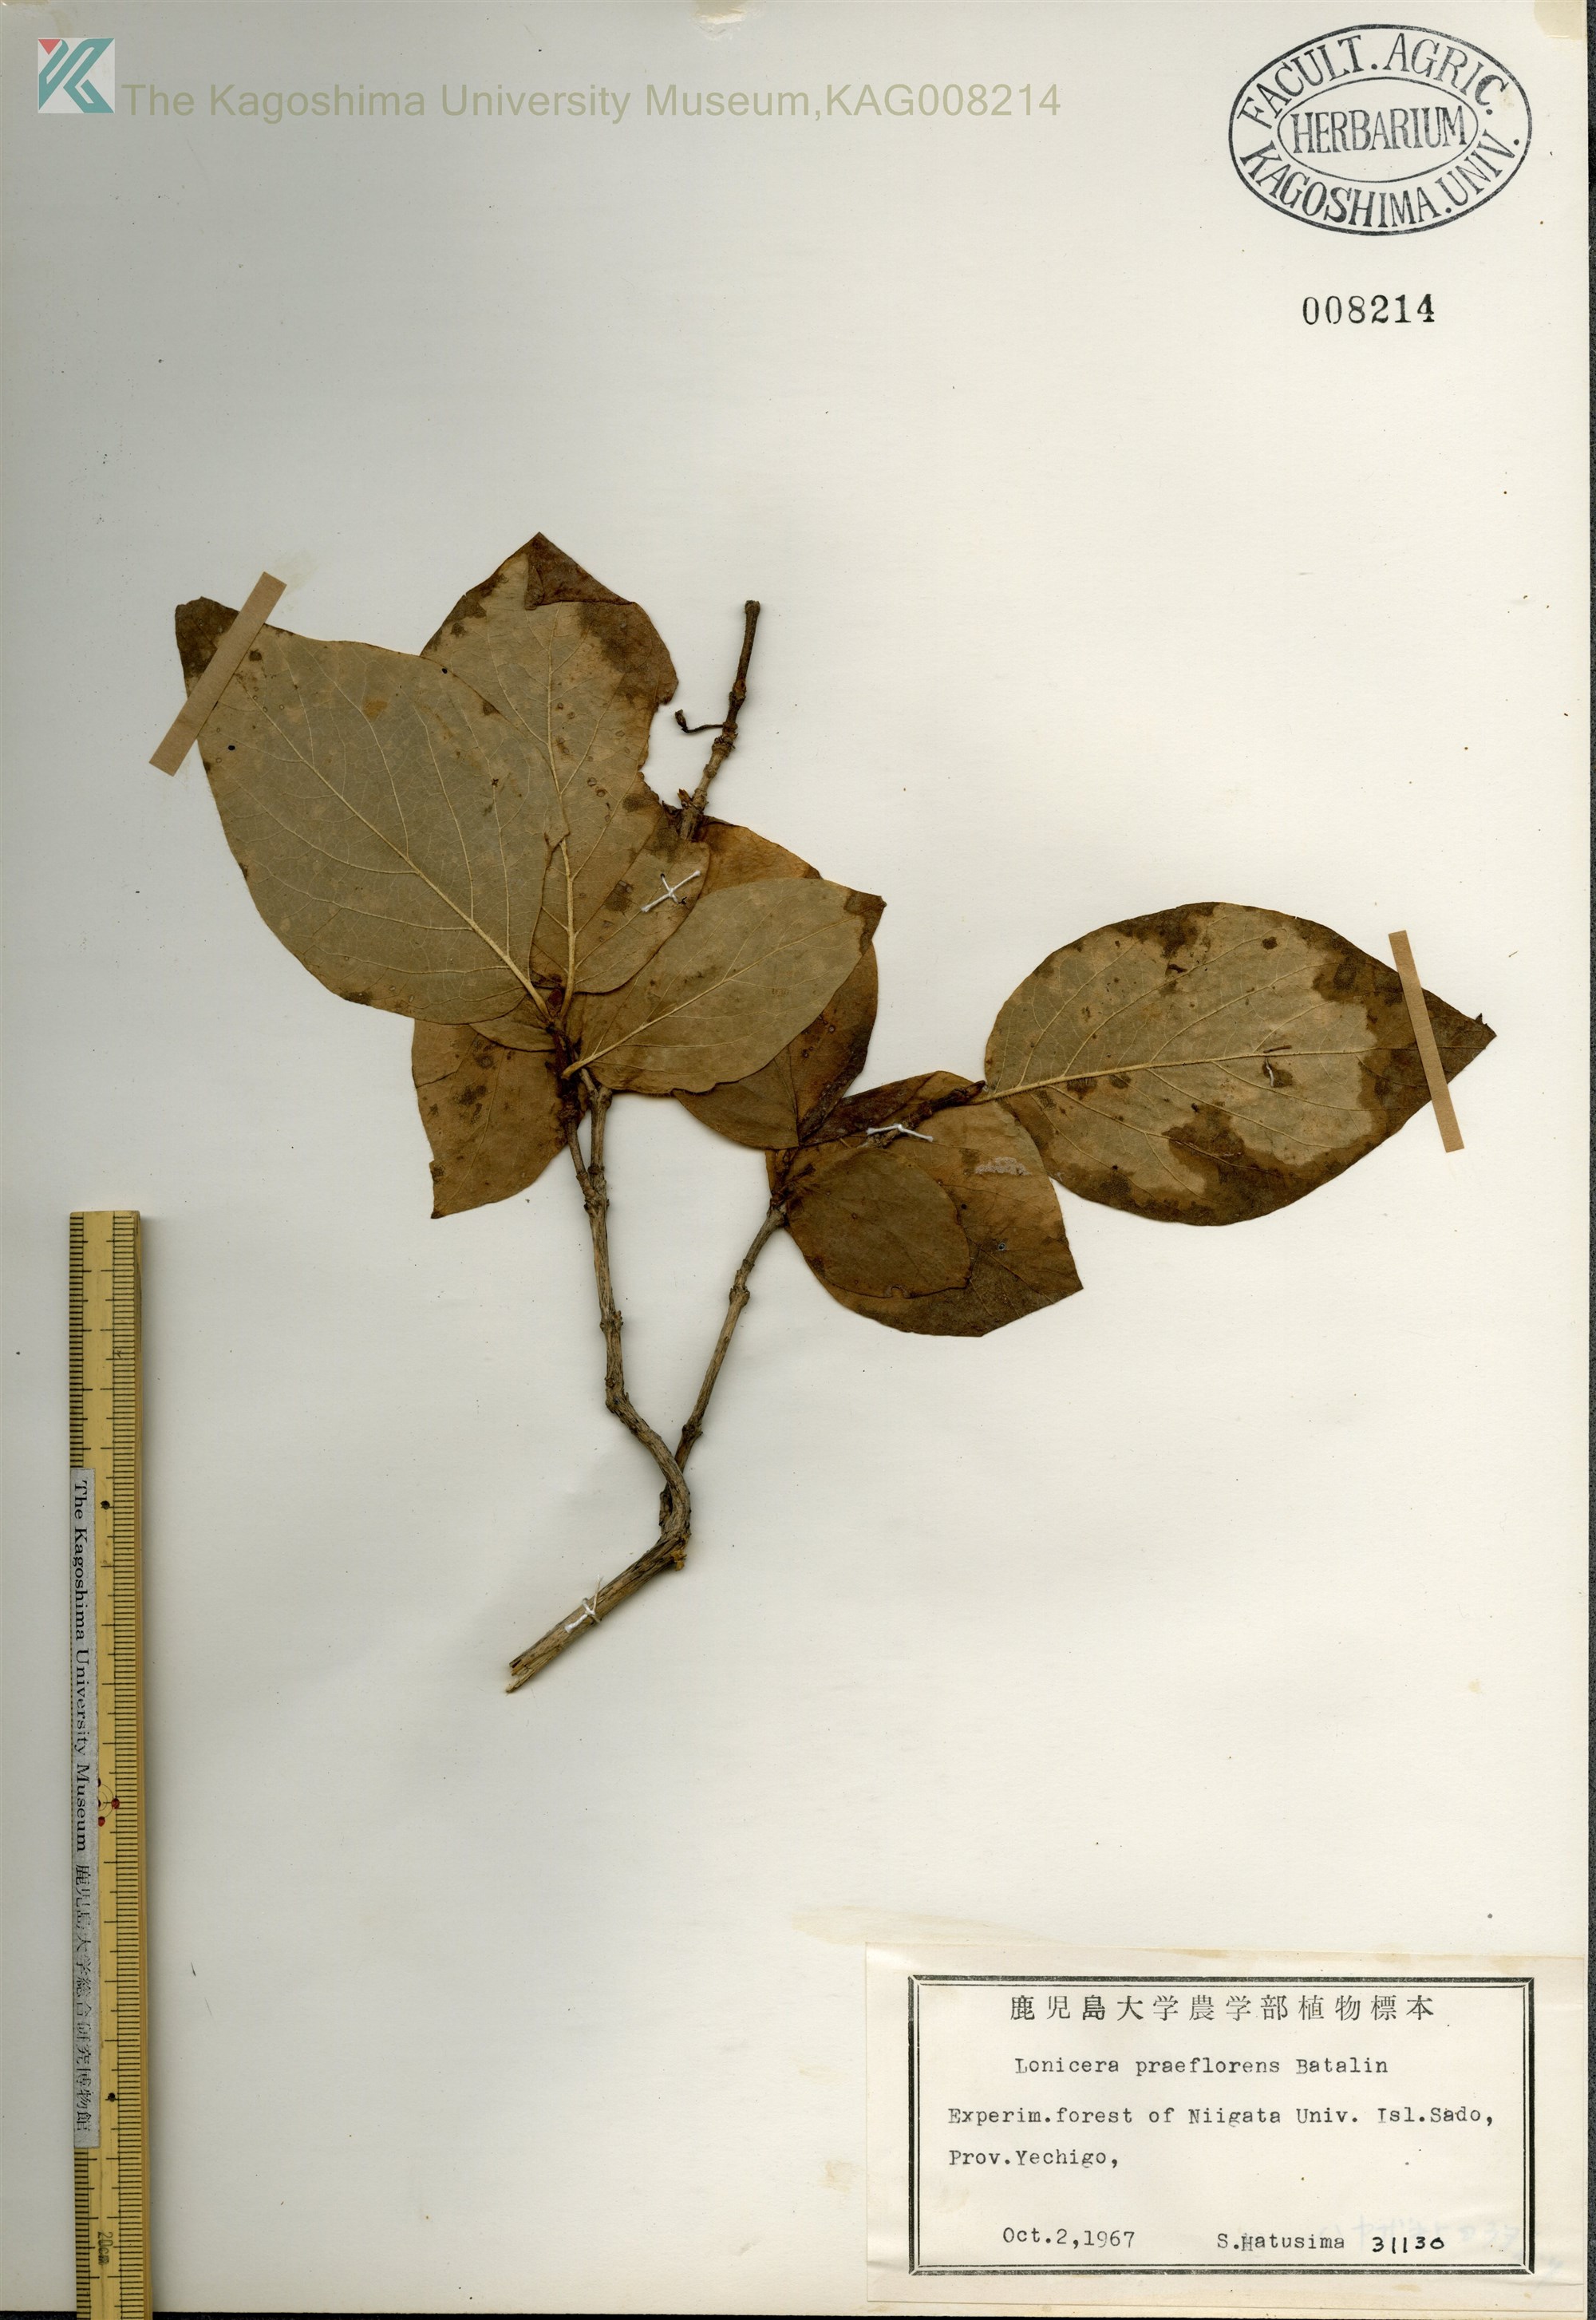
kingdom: Plantae
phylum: Tracheophyta
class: Magnoliopsida
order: Dipsacales
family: Caprifoliaceae
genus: Lonicera
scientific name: Lonicera praeflorens
